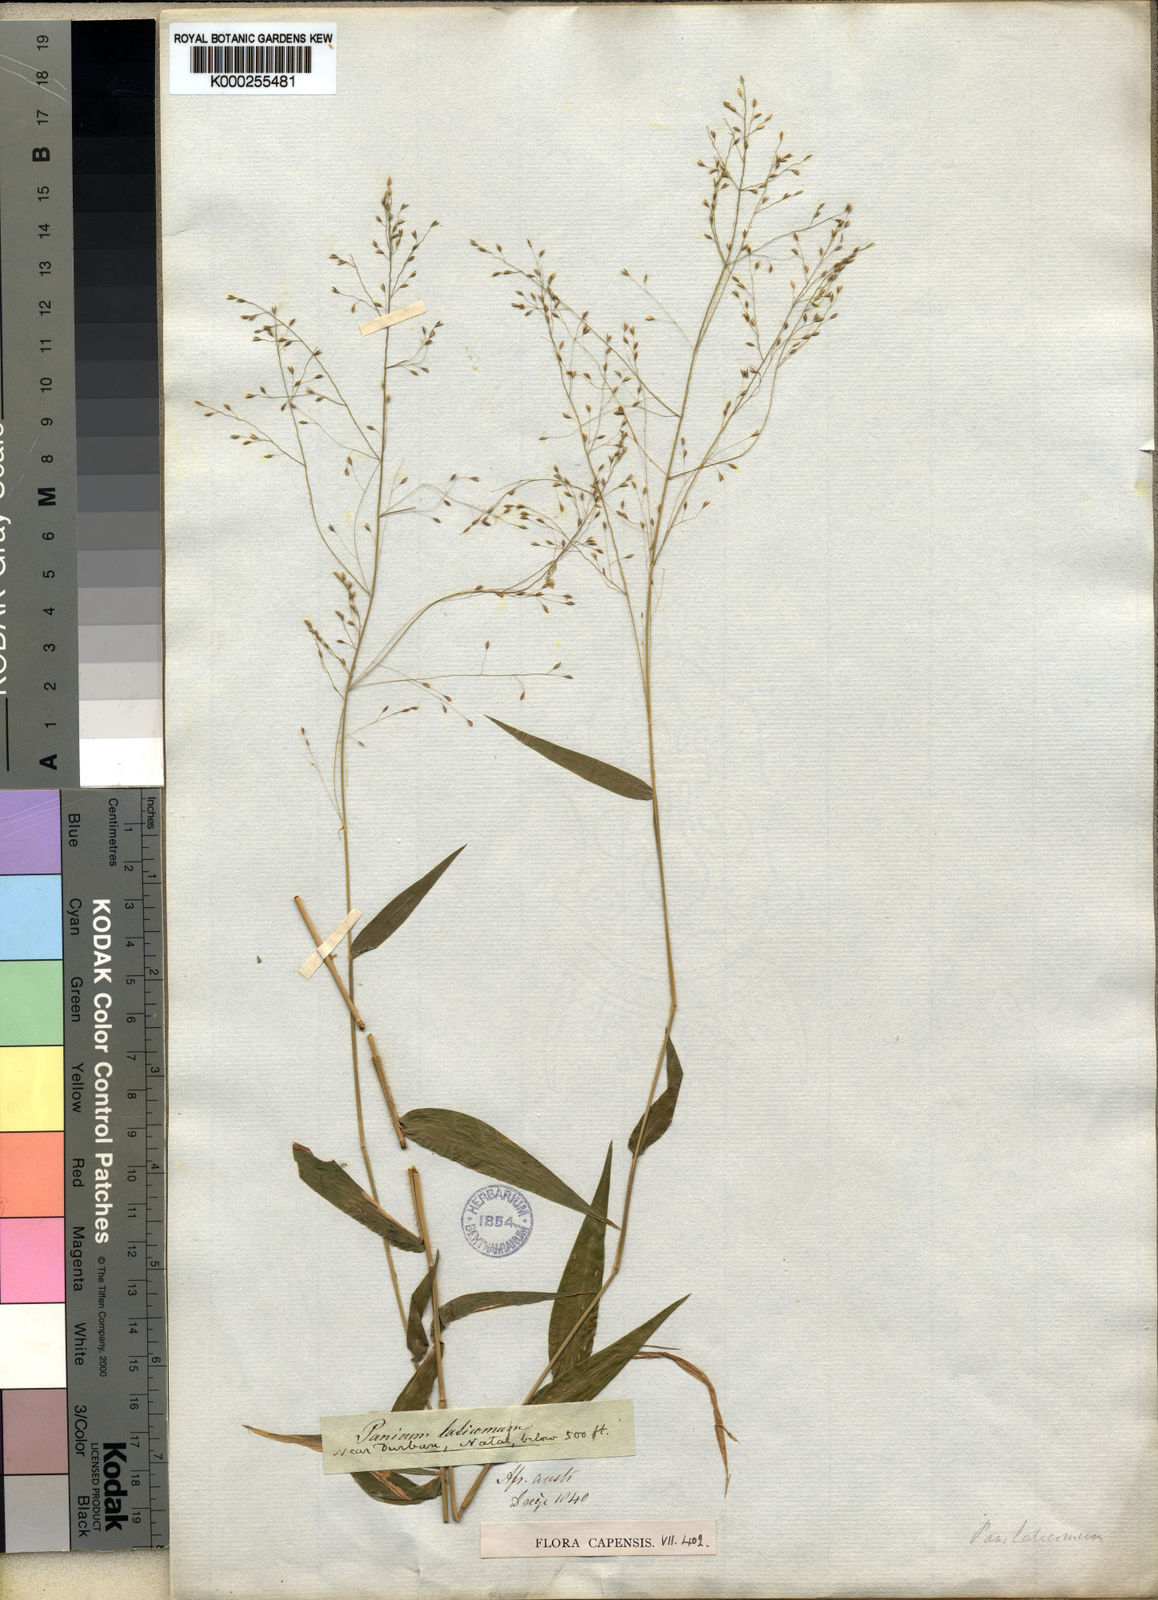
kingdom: Plantae
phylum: Tracheophyta
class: Liliopsida
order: Poales
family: Poaceae
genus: Panicum
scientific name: Panicum laticomum
